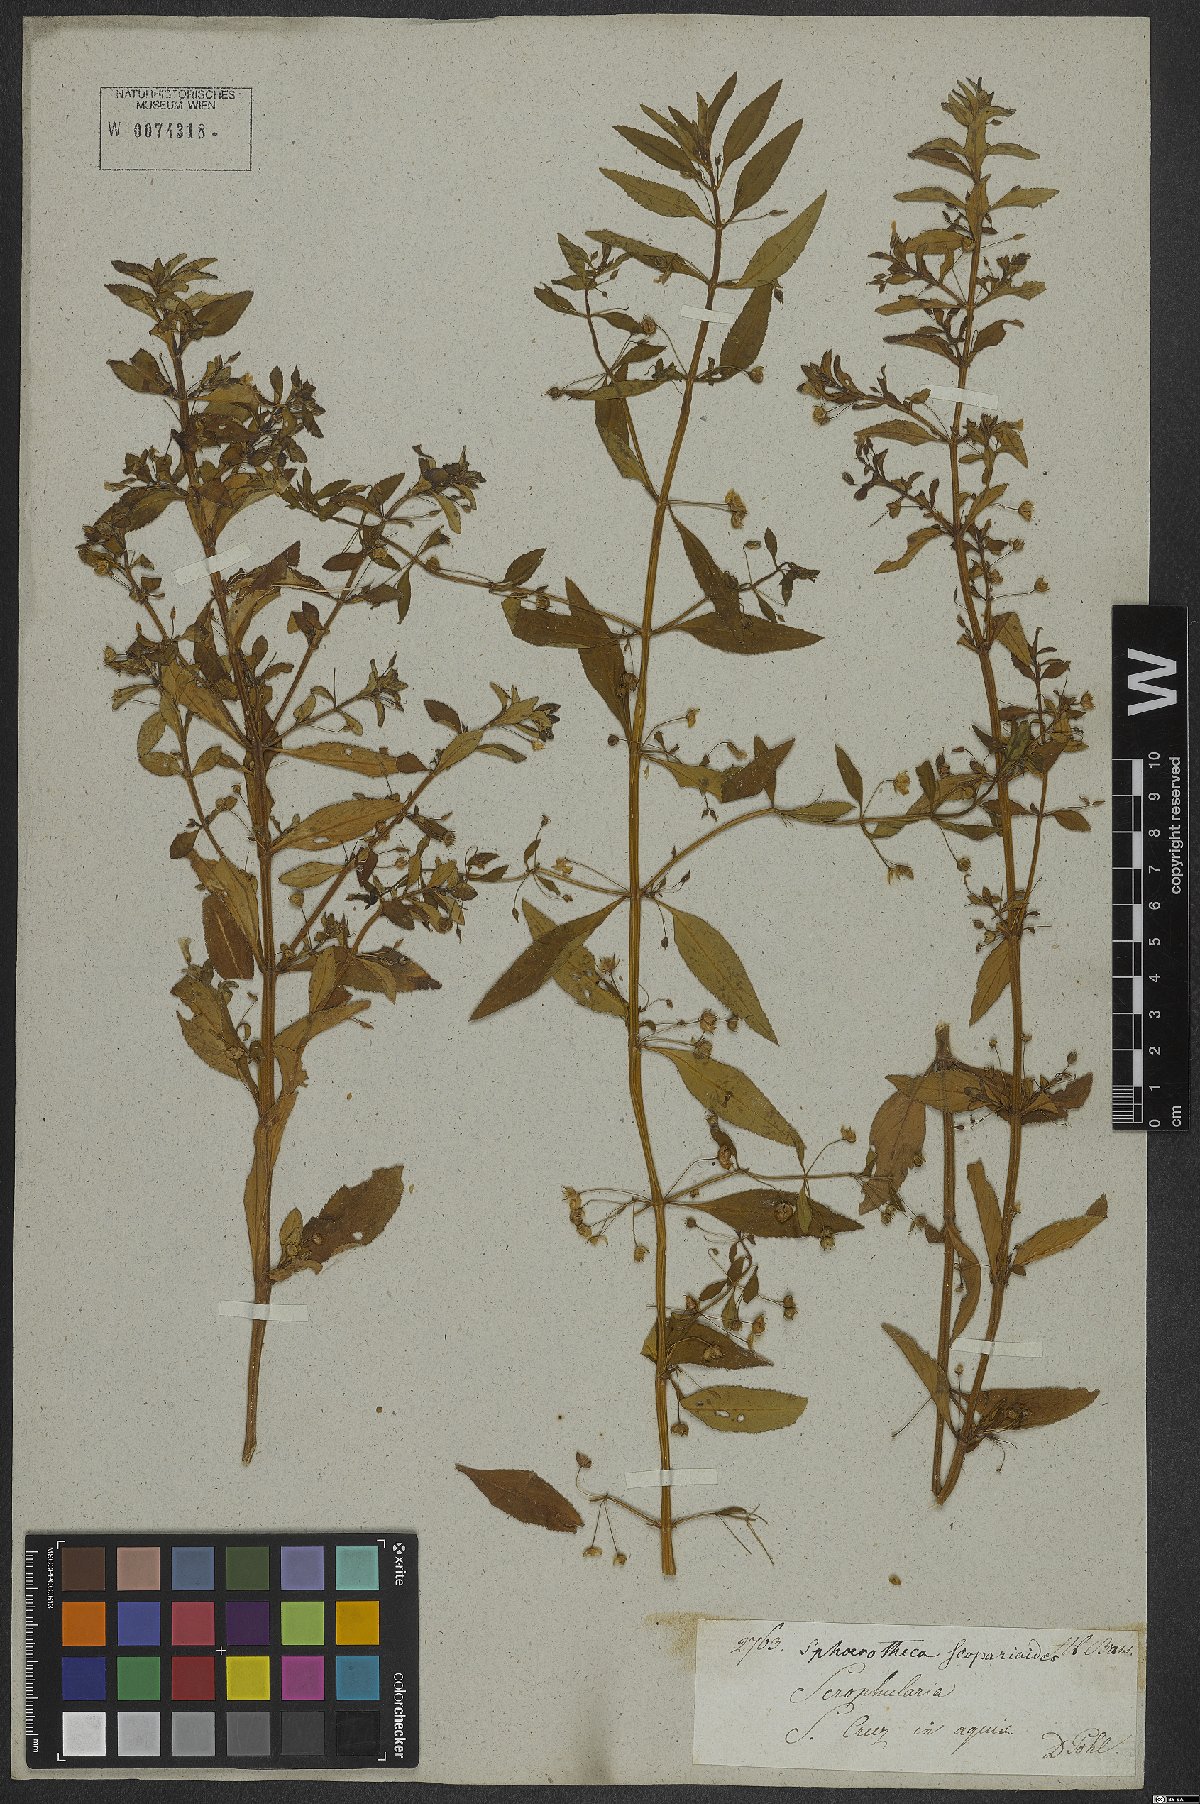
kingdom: Plantae
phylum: Tracheophyta
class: Magnoliopsida
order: Lamiales
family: Plantaginaceae
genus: Conobea
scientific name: Conobea scoparioides
